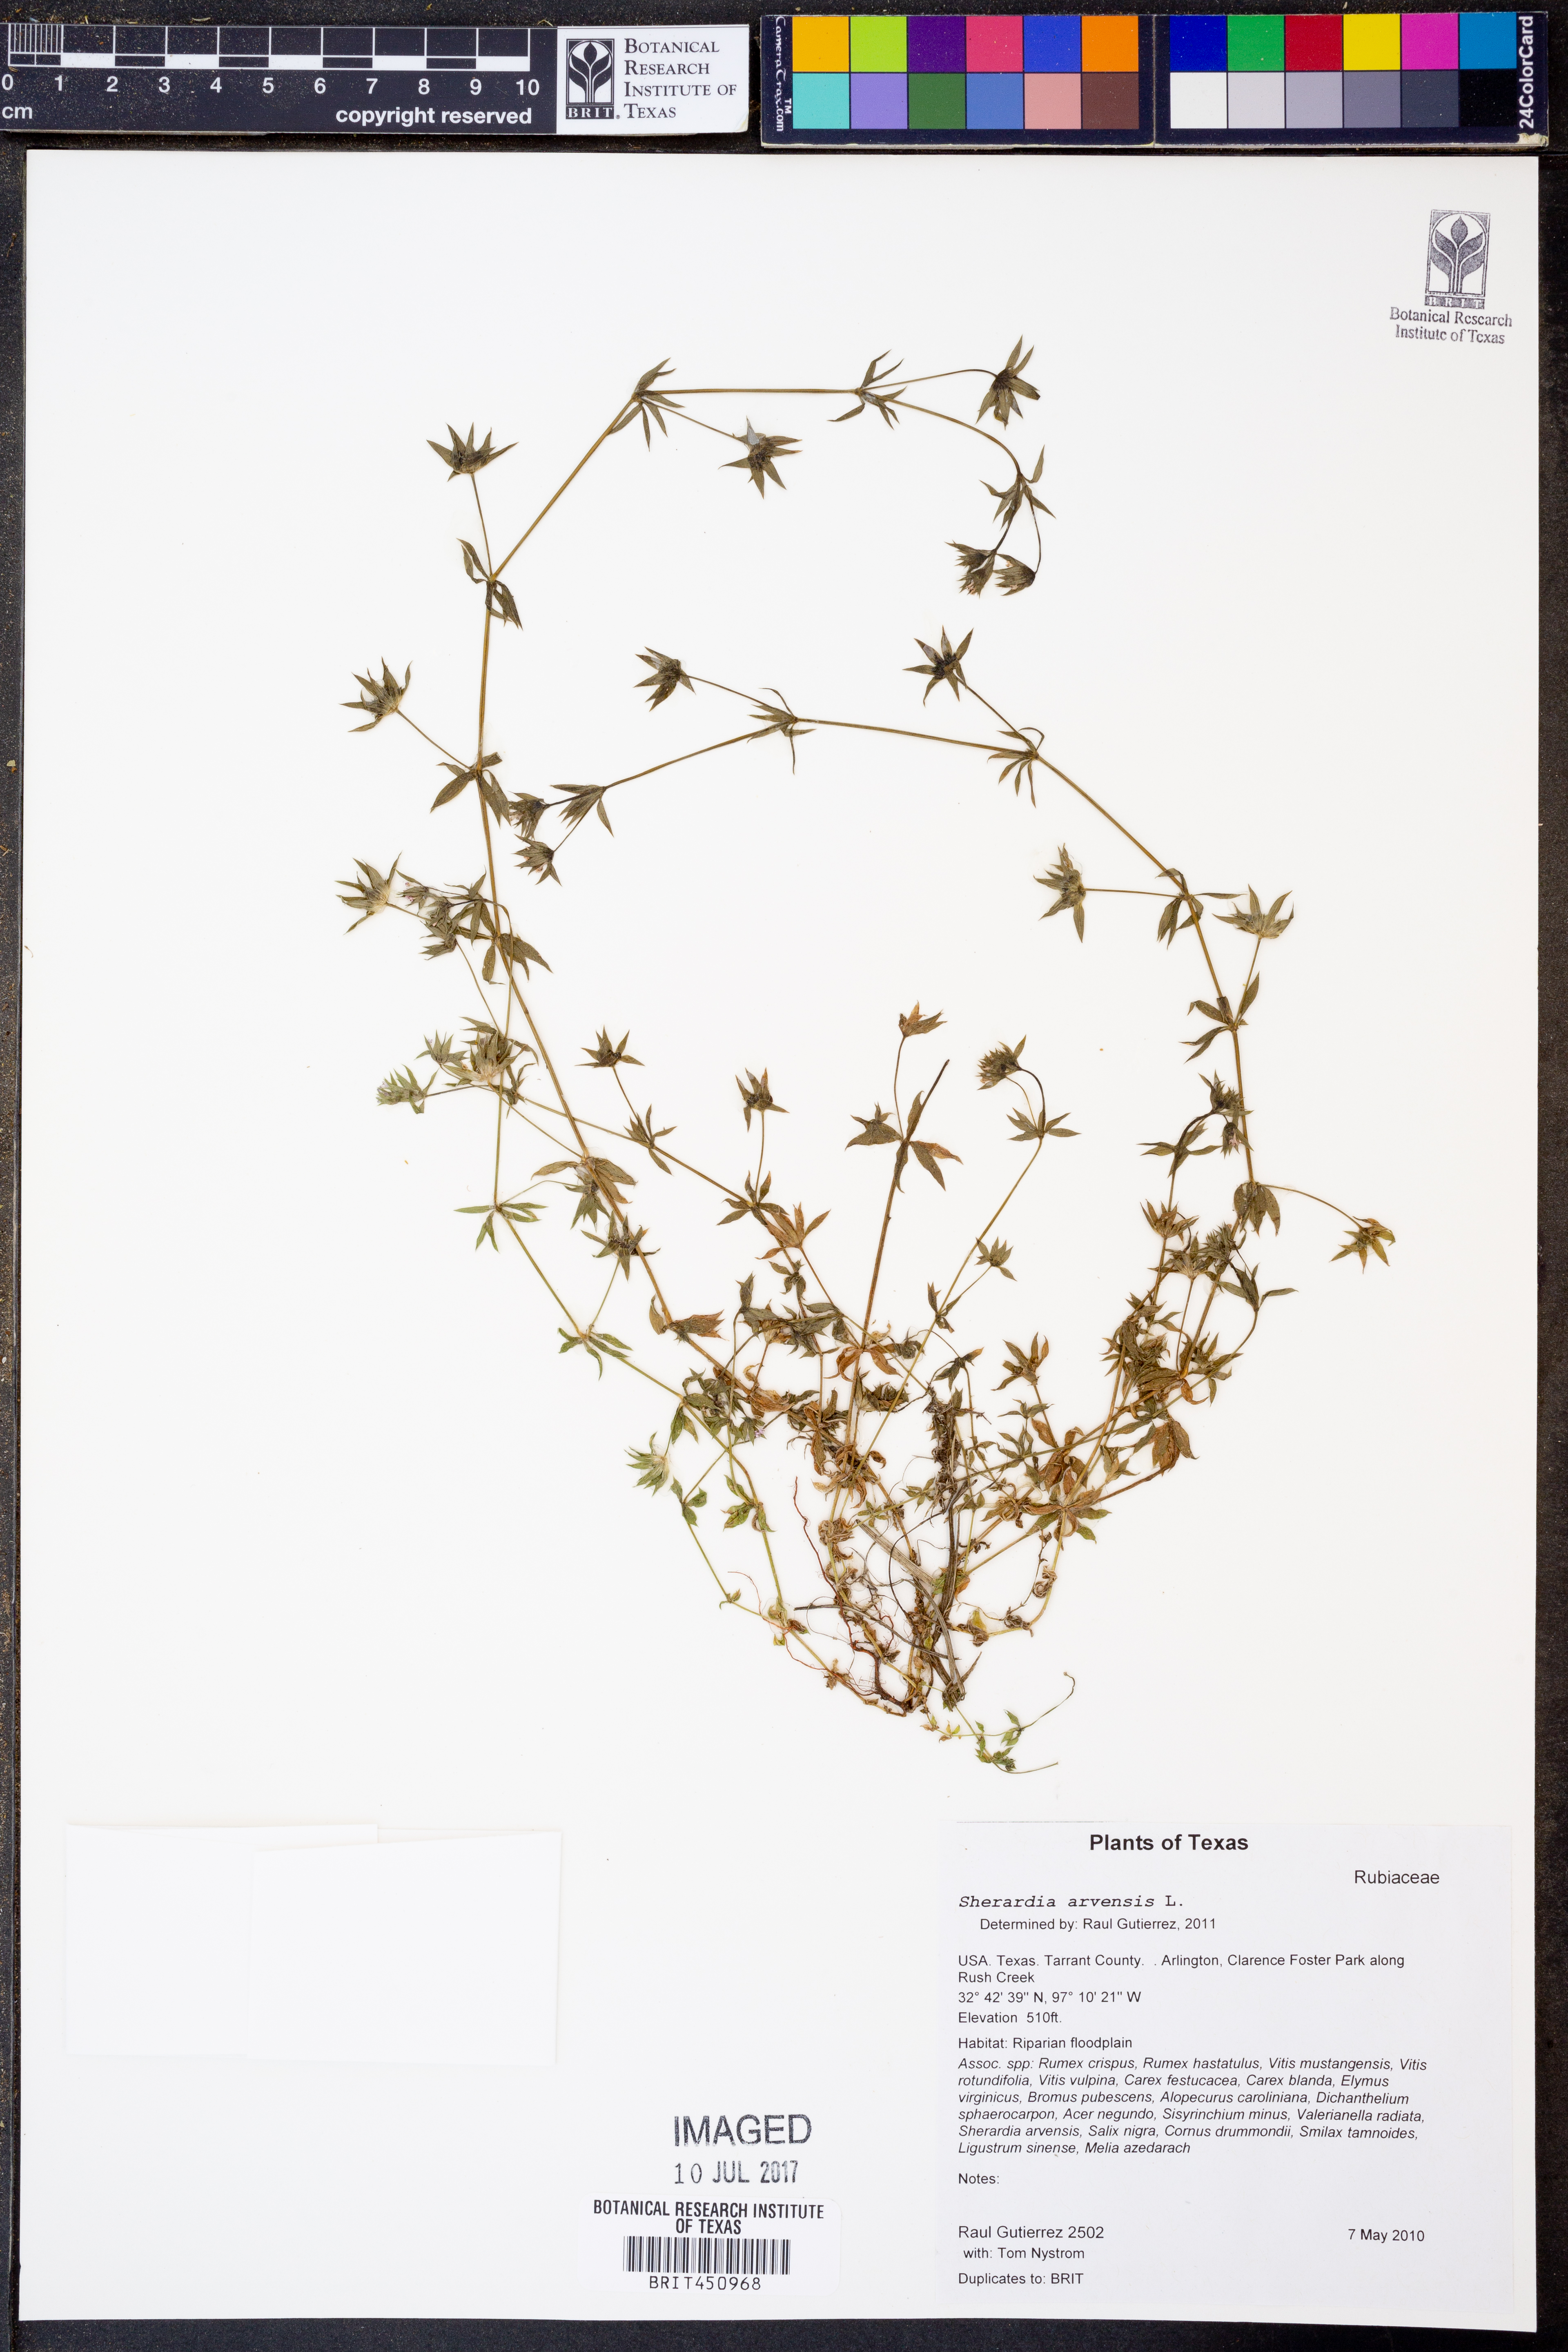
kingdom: Plantae
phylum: Tracheophyta
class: Magnoliopsida
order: Gentianales
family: Rubiaceae
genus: Sherardia
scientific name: Sherardia arvensis
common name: Field madder
